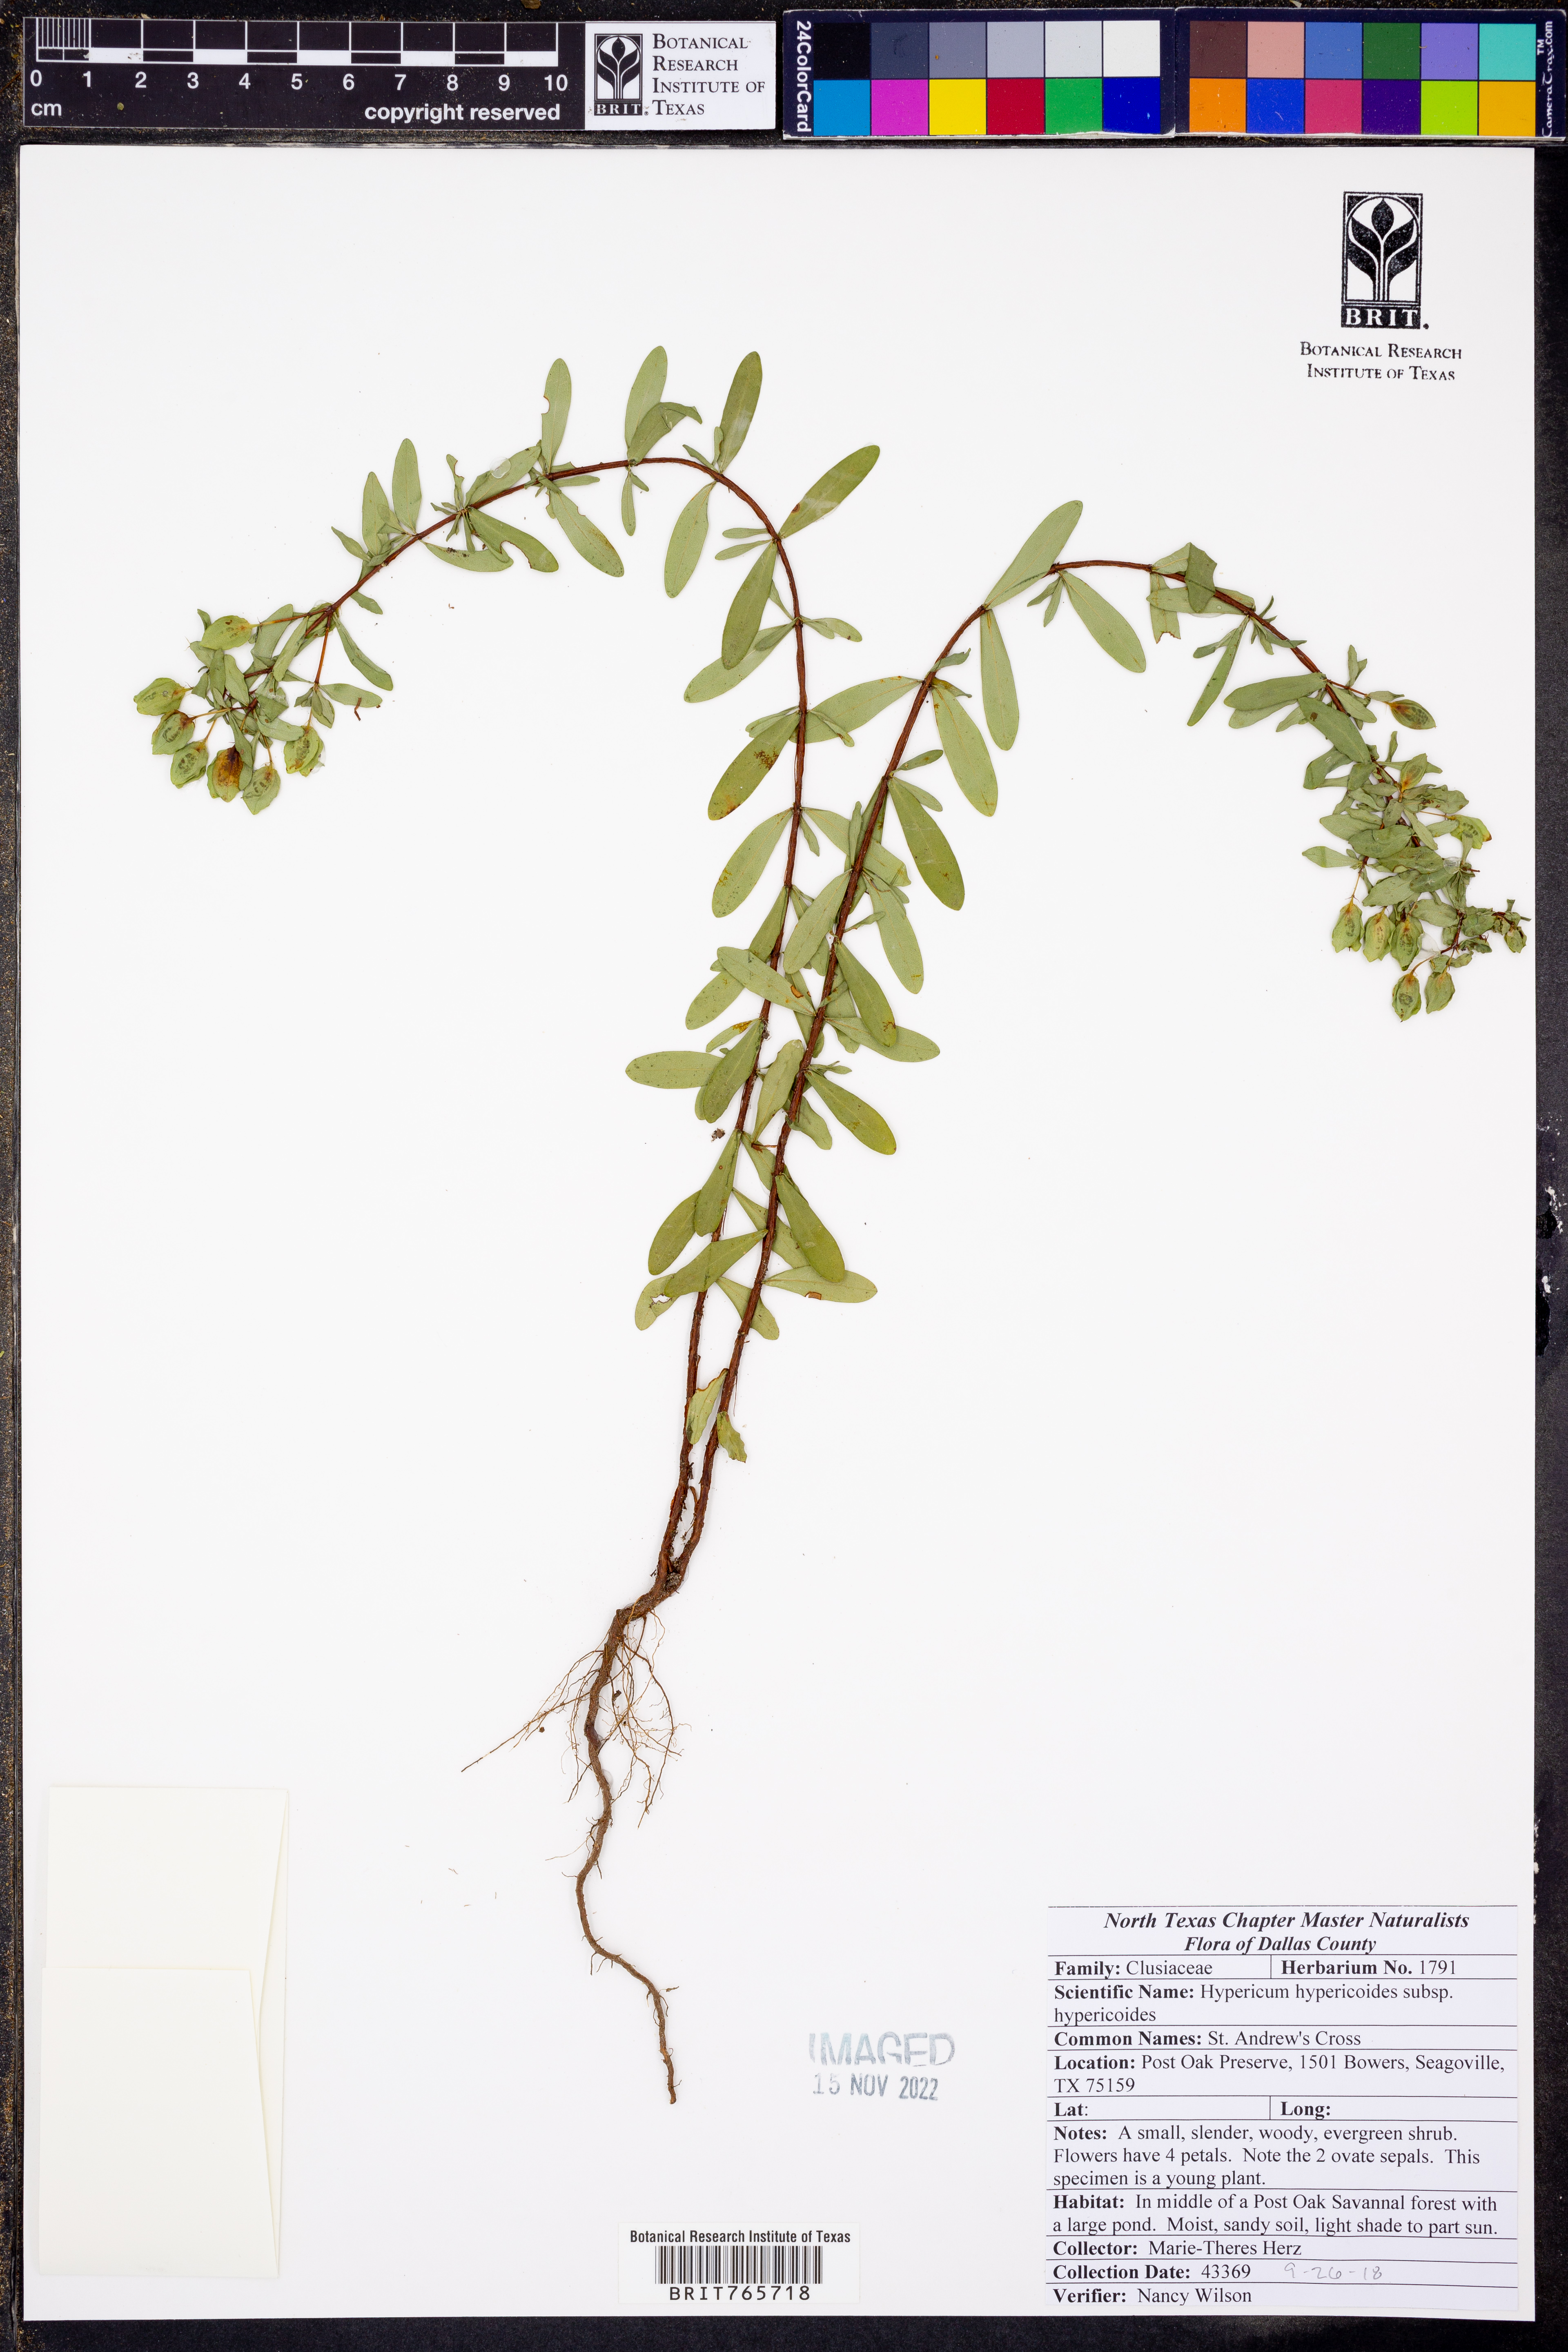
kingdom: Plantae
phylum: Tracheophyta
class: Magnoliopsida
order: Malpighiales
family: Hypericaceae
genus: Hypericum
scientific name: Hypericum hypericoides
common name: St. andrew's cross
